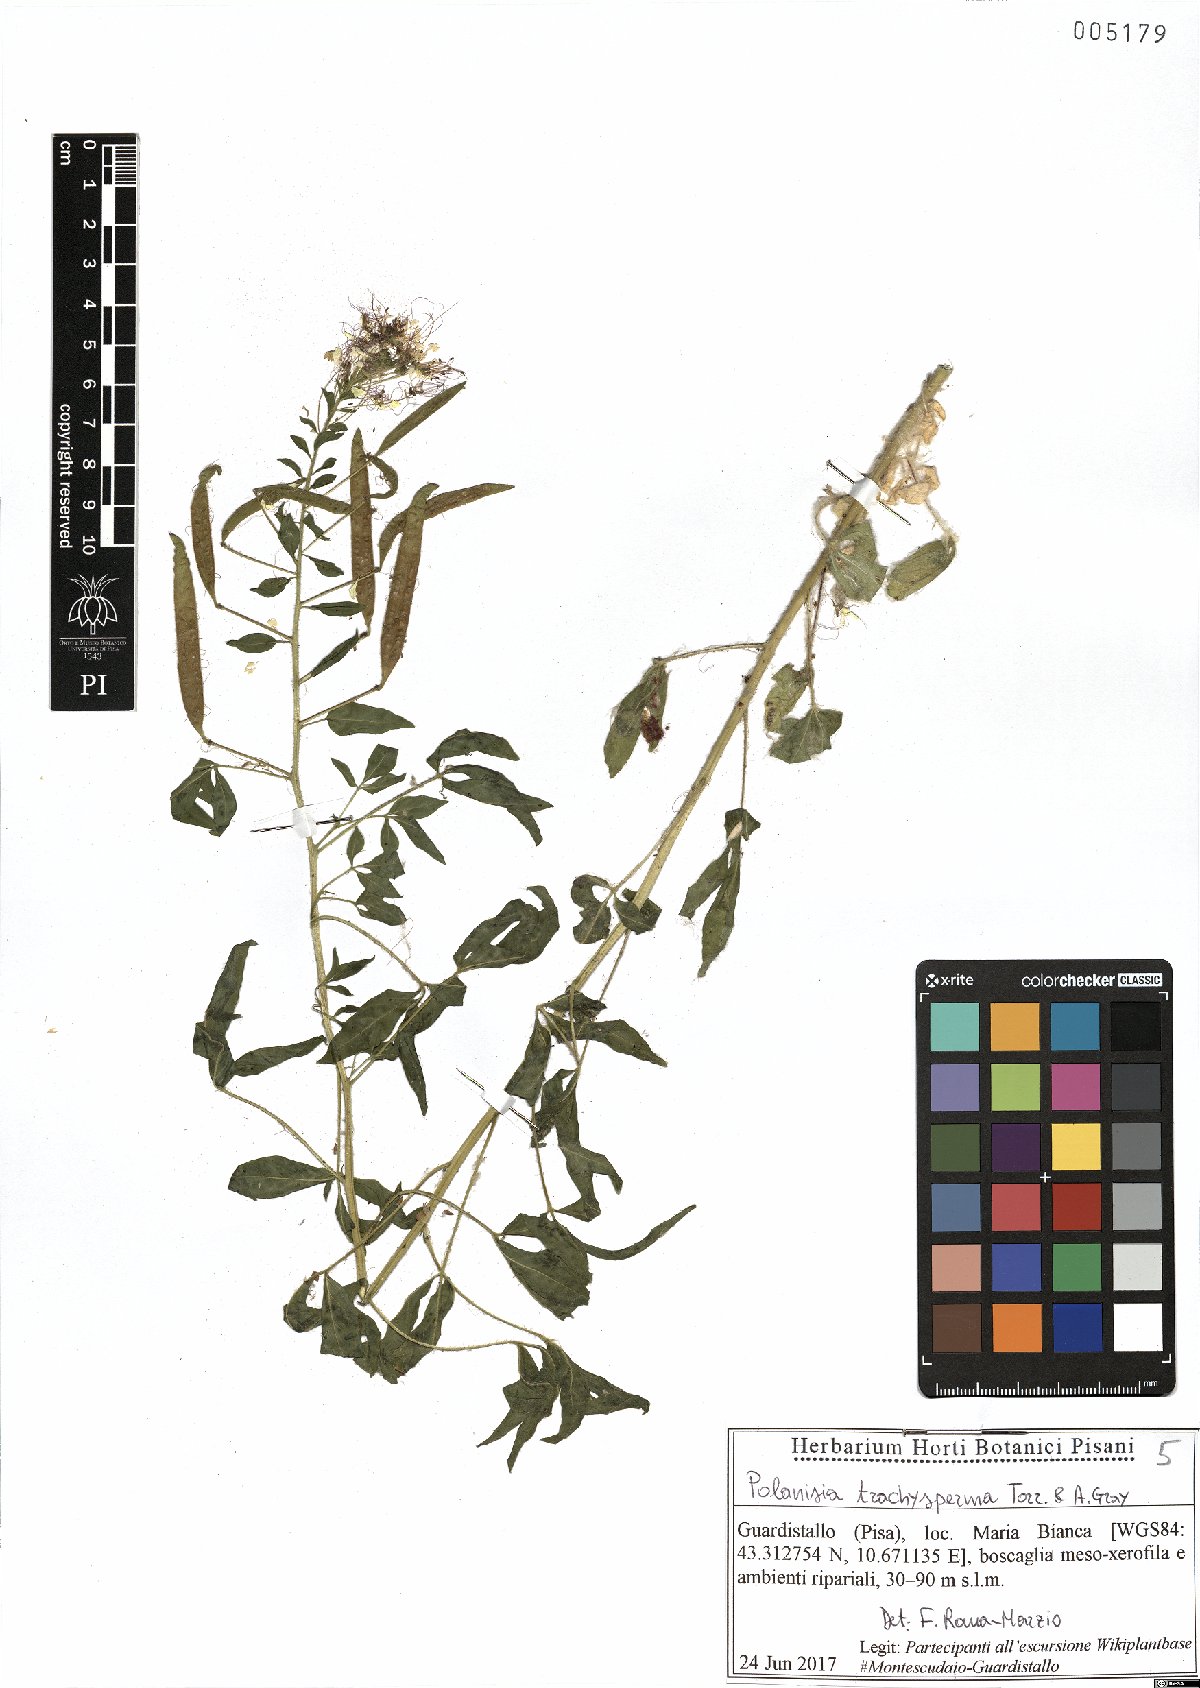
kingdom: Plantae
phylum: Tracheophyta
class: Magnoliopsida
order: Brassicales
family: Cleomaceae
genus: Polanisia
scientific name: Polanisia trachysperma
